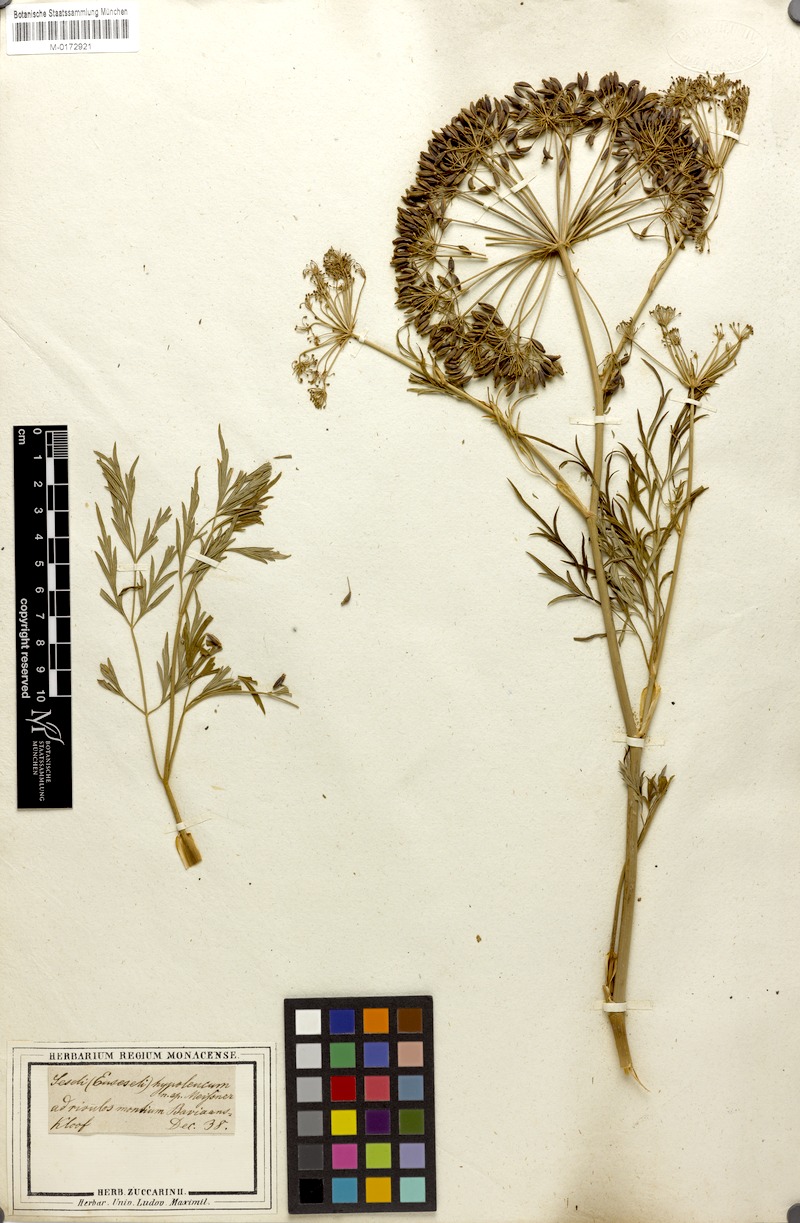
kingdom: Plantae
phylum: Tracheophyta
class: Magnoliopsida
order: Apiales
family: Apiaceae
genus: Notobubon
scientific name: Notobubon gummiferum
